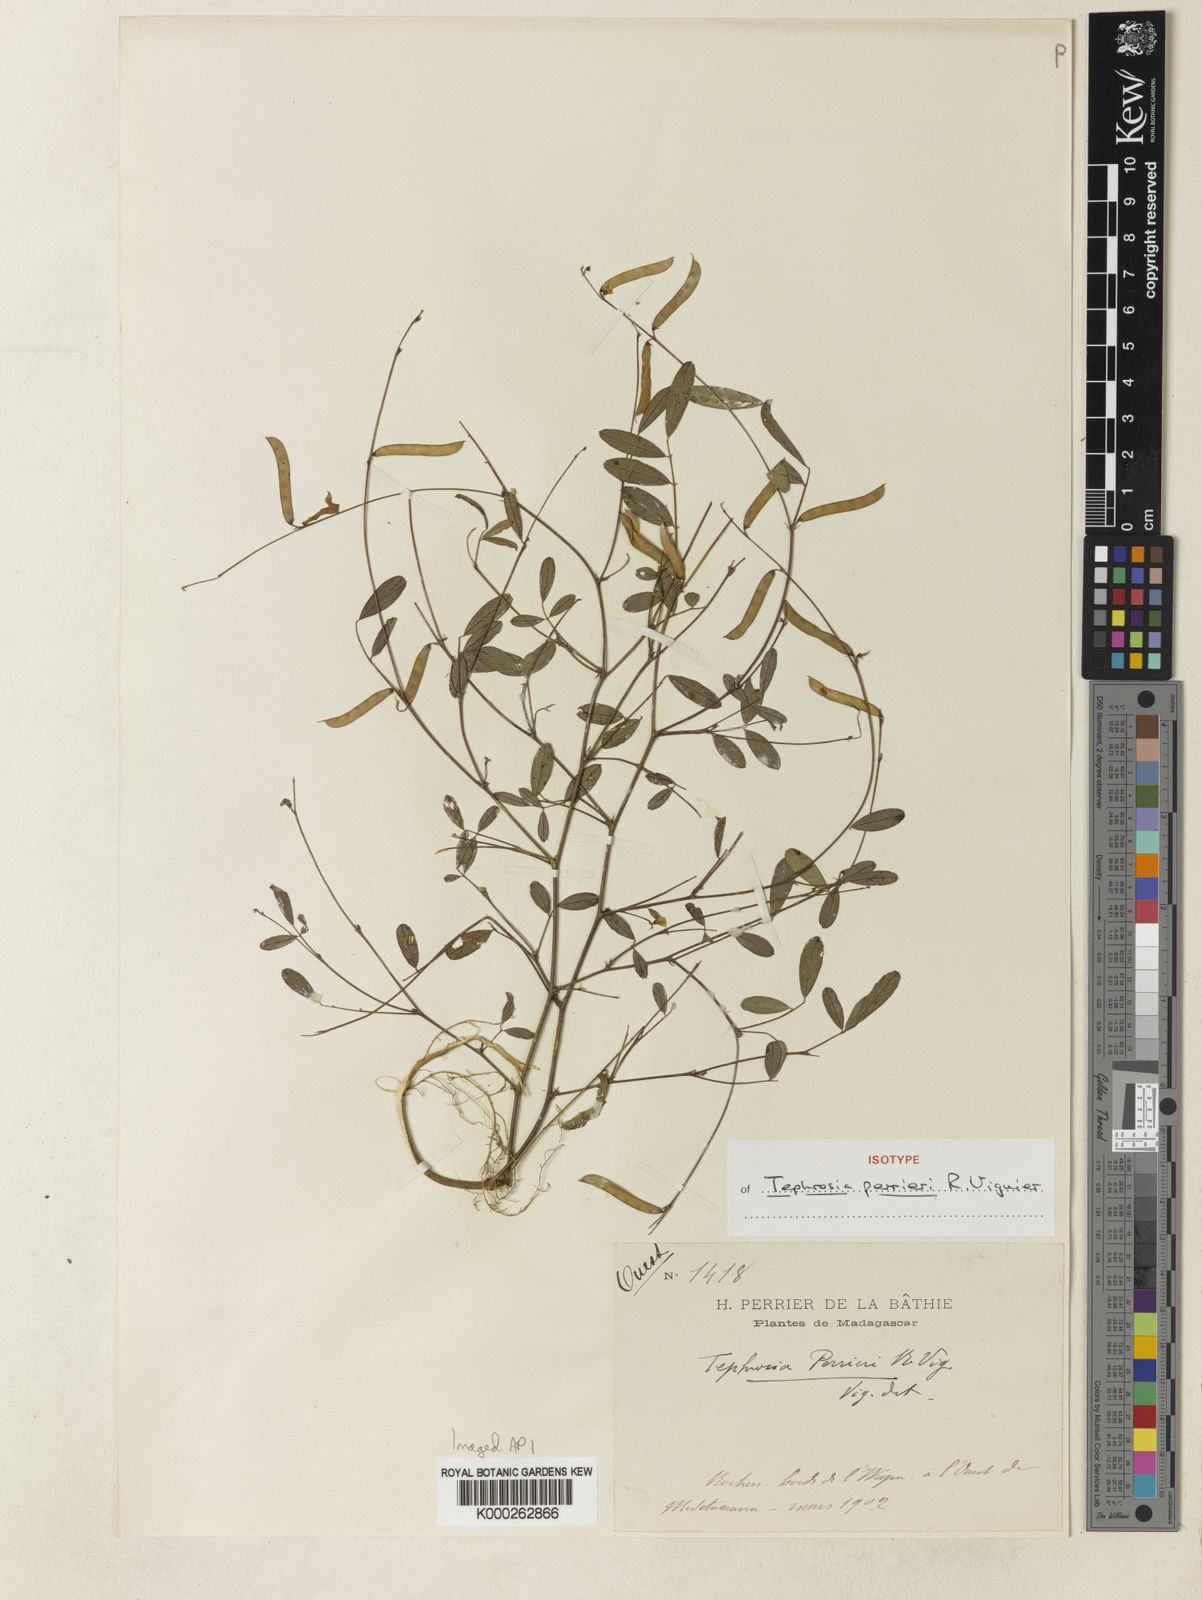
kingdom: Plantae
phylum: Tracheophyta
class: Magnoliopsida
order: Fabales
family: Fabaceae
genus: Tephrosia
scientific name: Tephrosia perrieri
